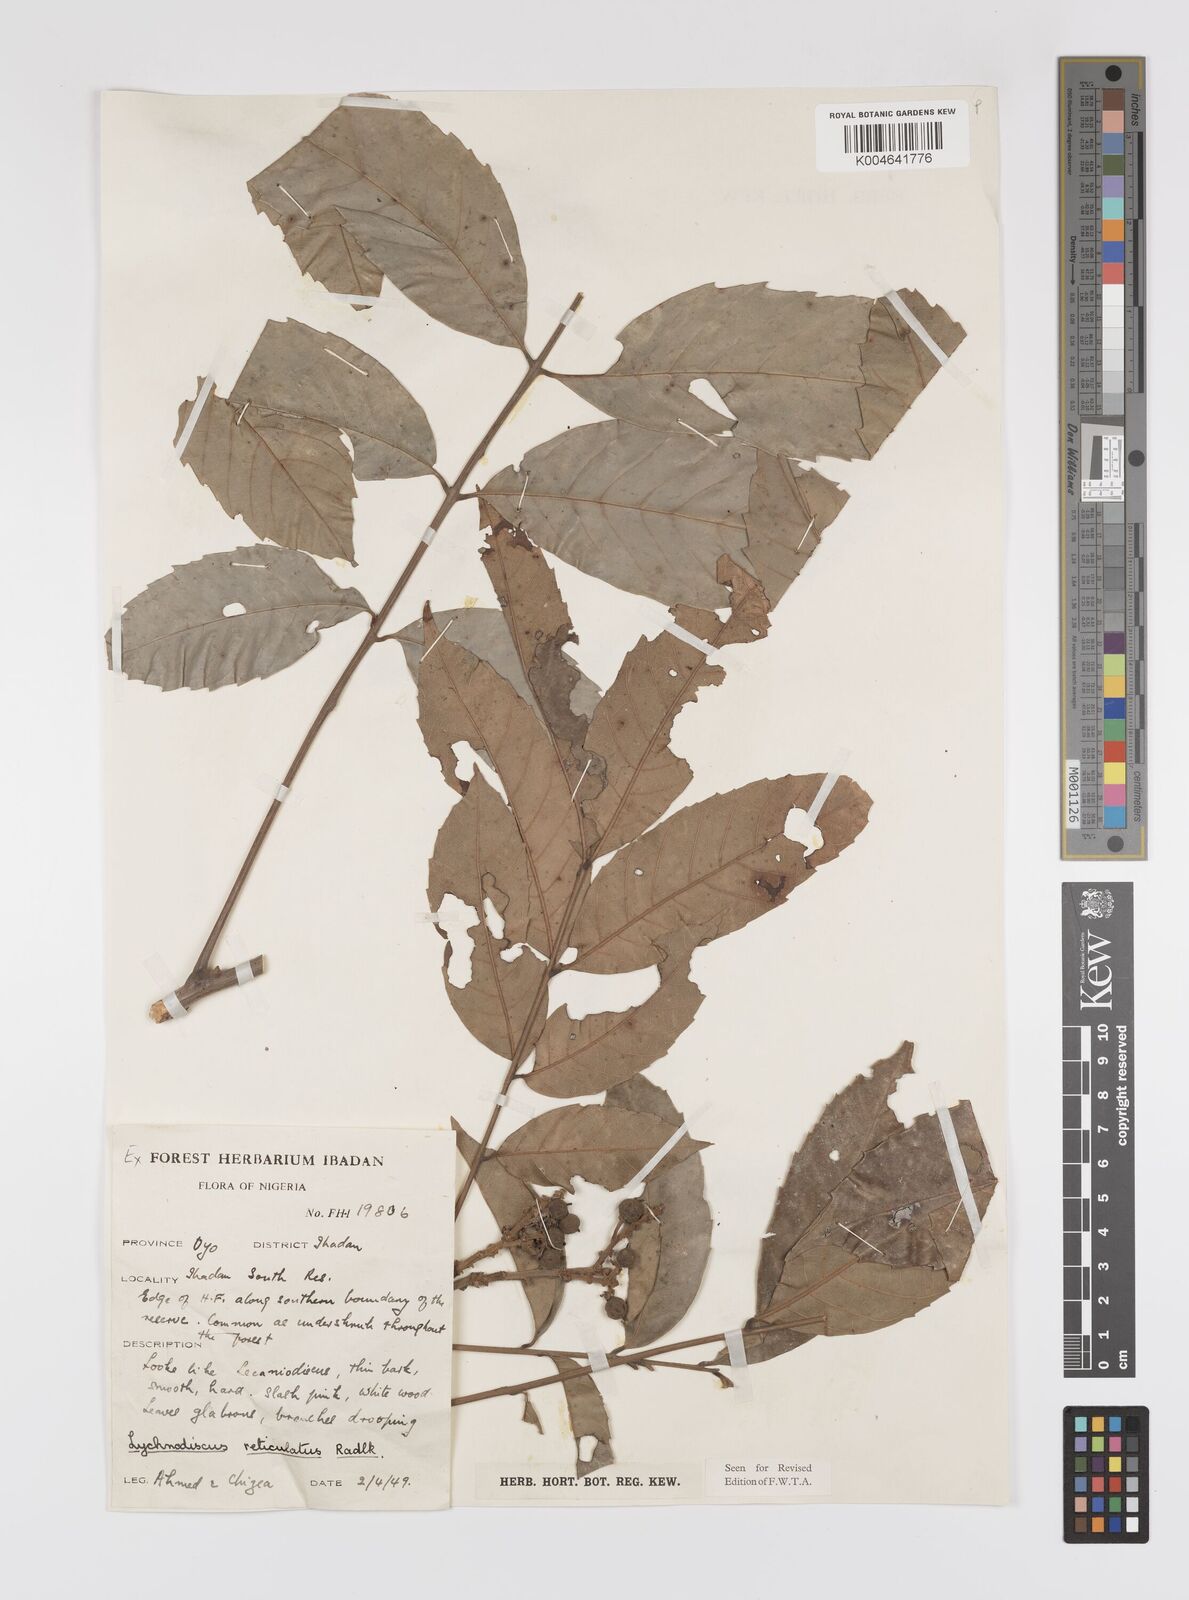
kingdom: Plantae
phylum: Tracheophyta
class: Magnoliopsida
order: Sapindales
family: Sapindaceae
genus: Lychnodiscus
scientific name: Lychnodiscus reticulatus
